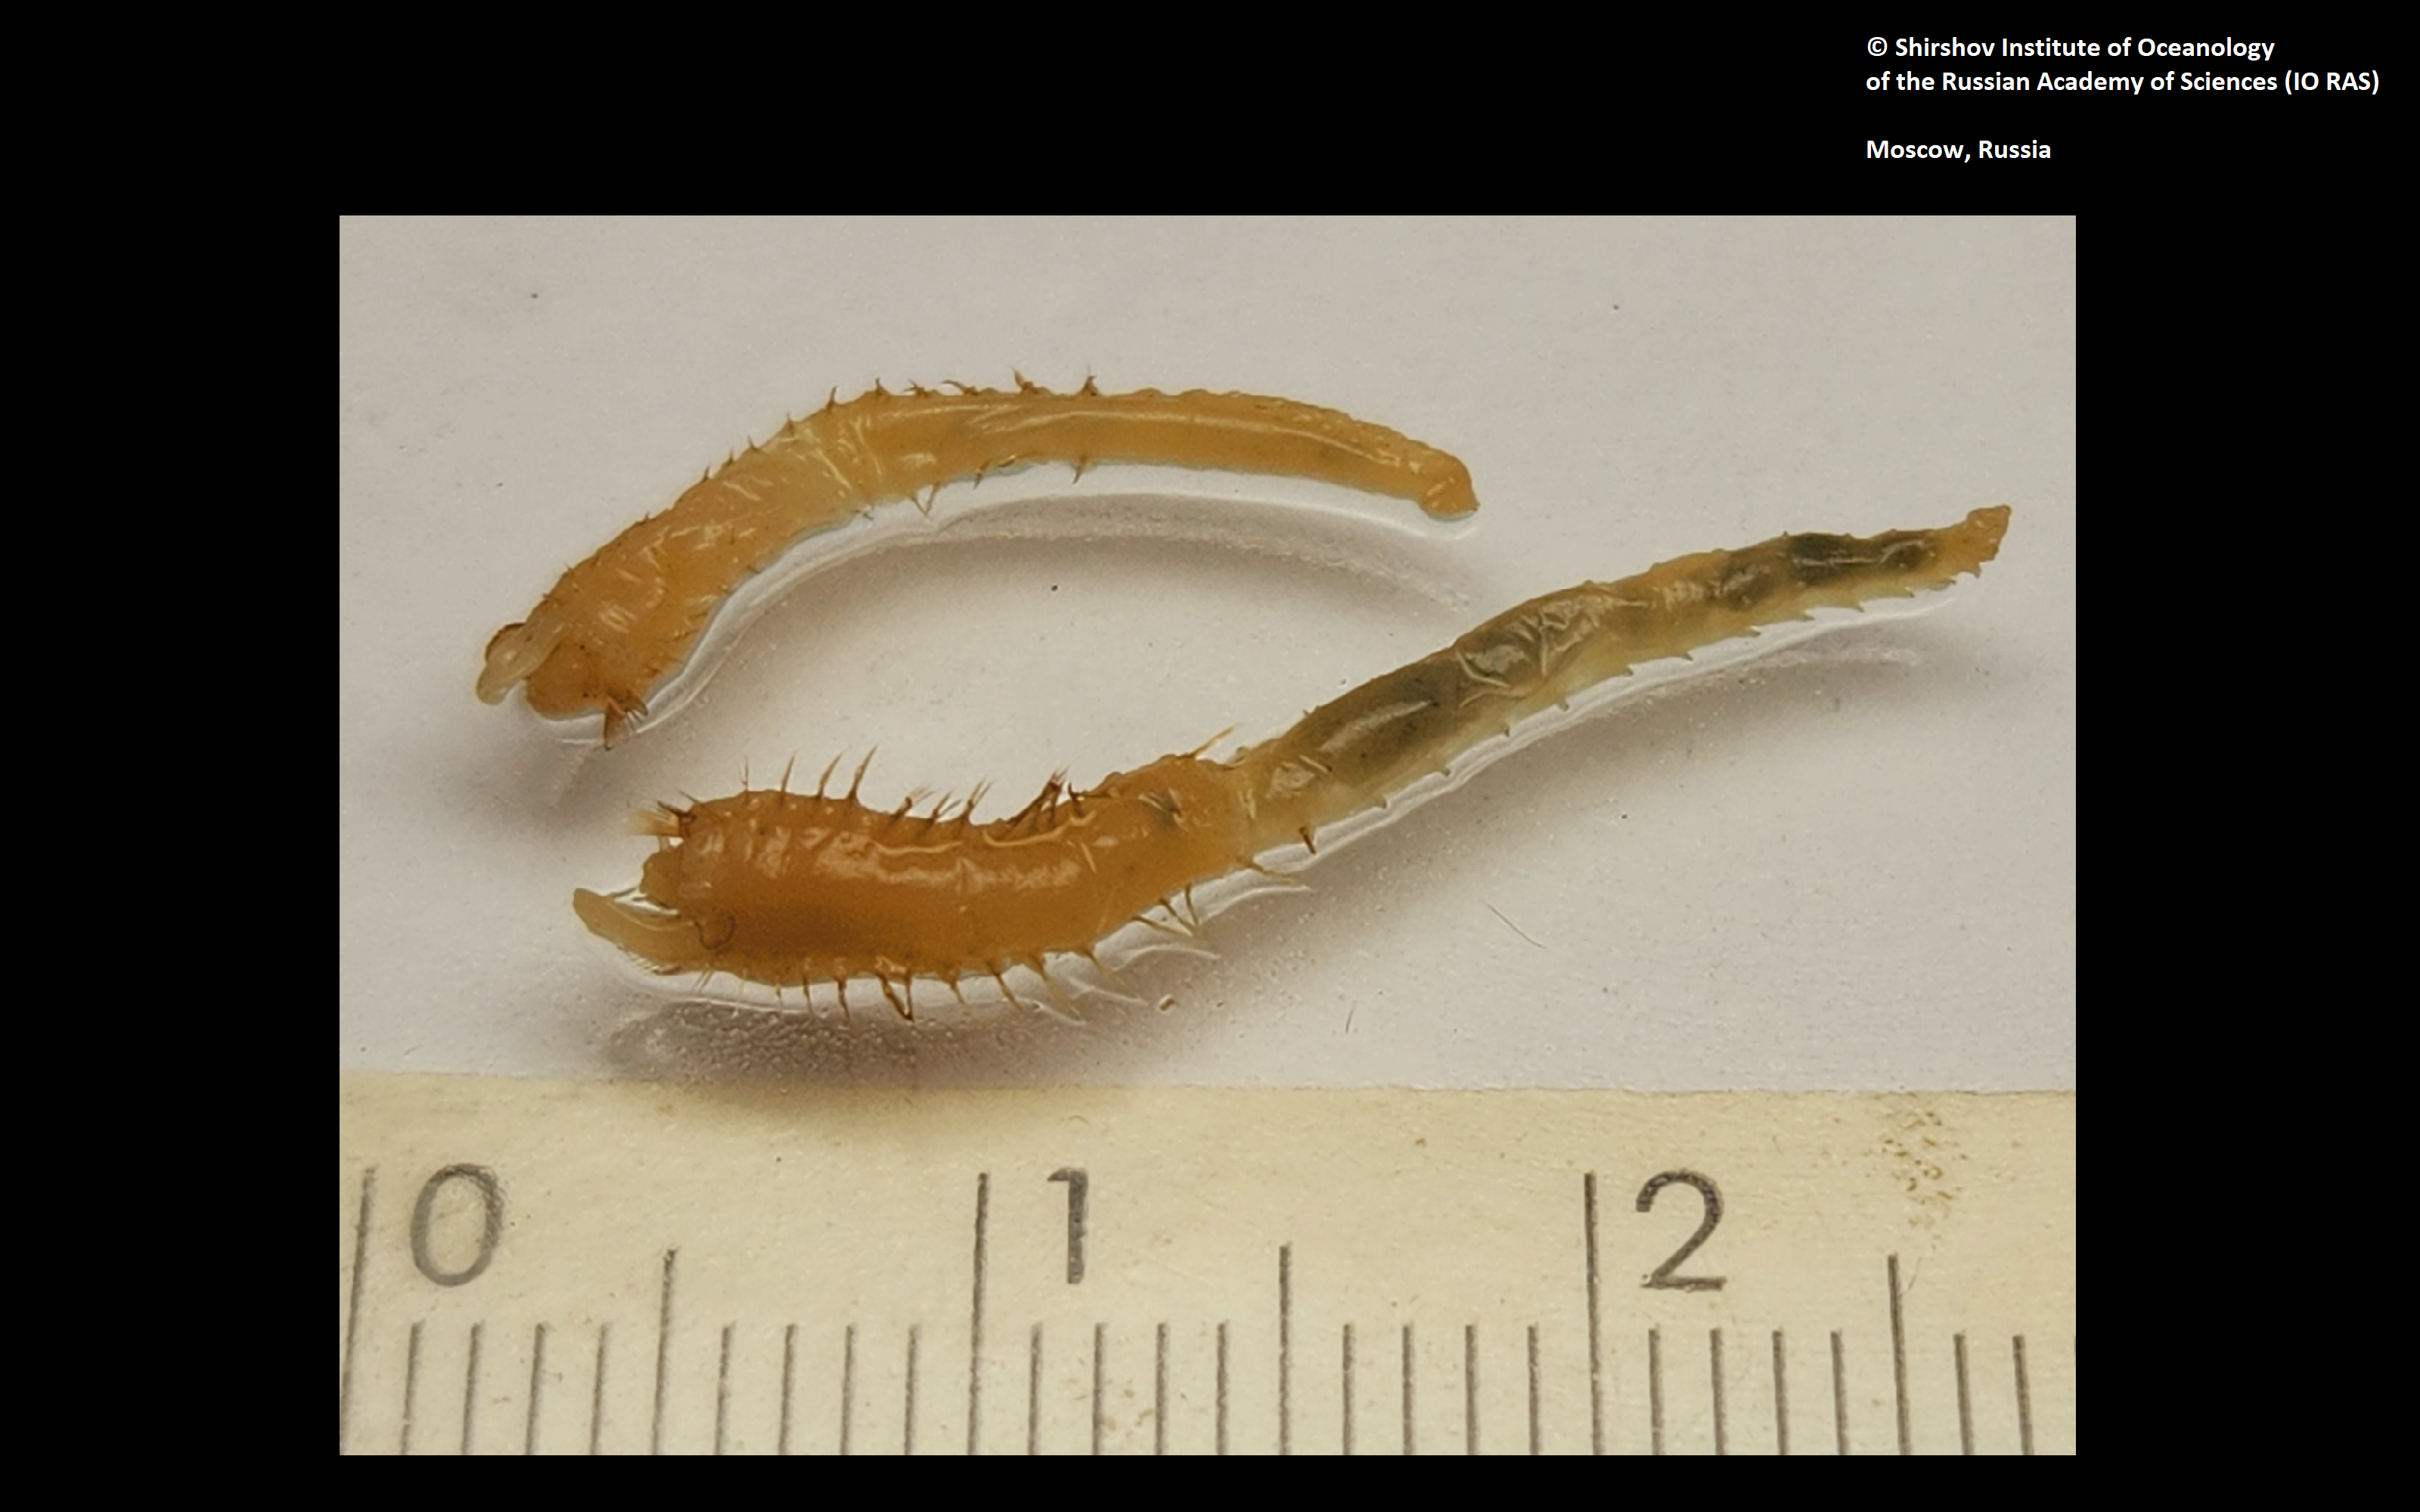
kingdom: Animalia
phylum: Annelida
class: Polychaeta
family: Ampharetidae
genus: Amphicteis
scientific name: Amphicteis nikiti
